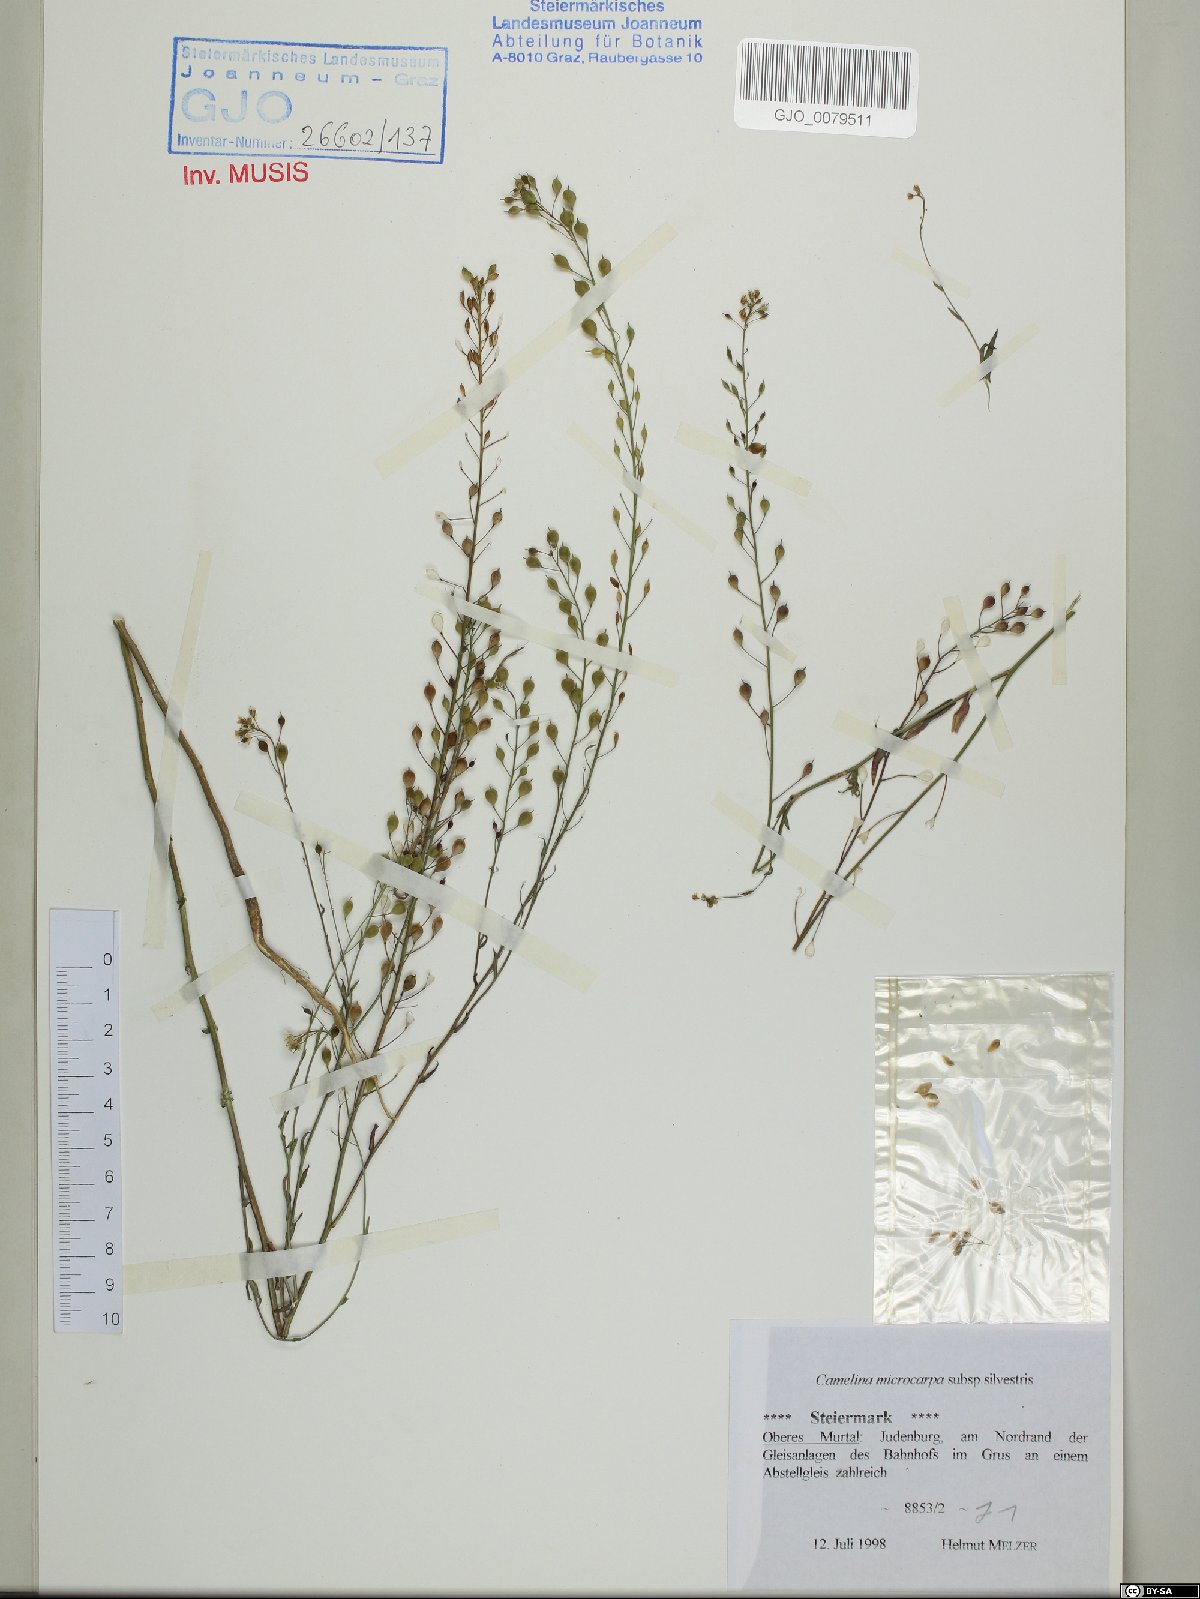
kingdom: Plantae
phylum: Tracheophyta
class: Magnoliopsida
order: Brassicales
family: Brassicaceae
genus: Camelina
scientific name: Camelina microcarpa
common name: Lesser gold-of-pleasure
